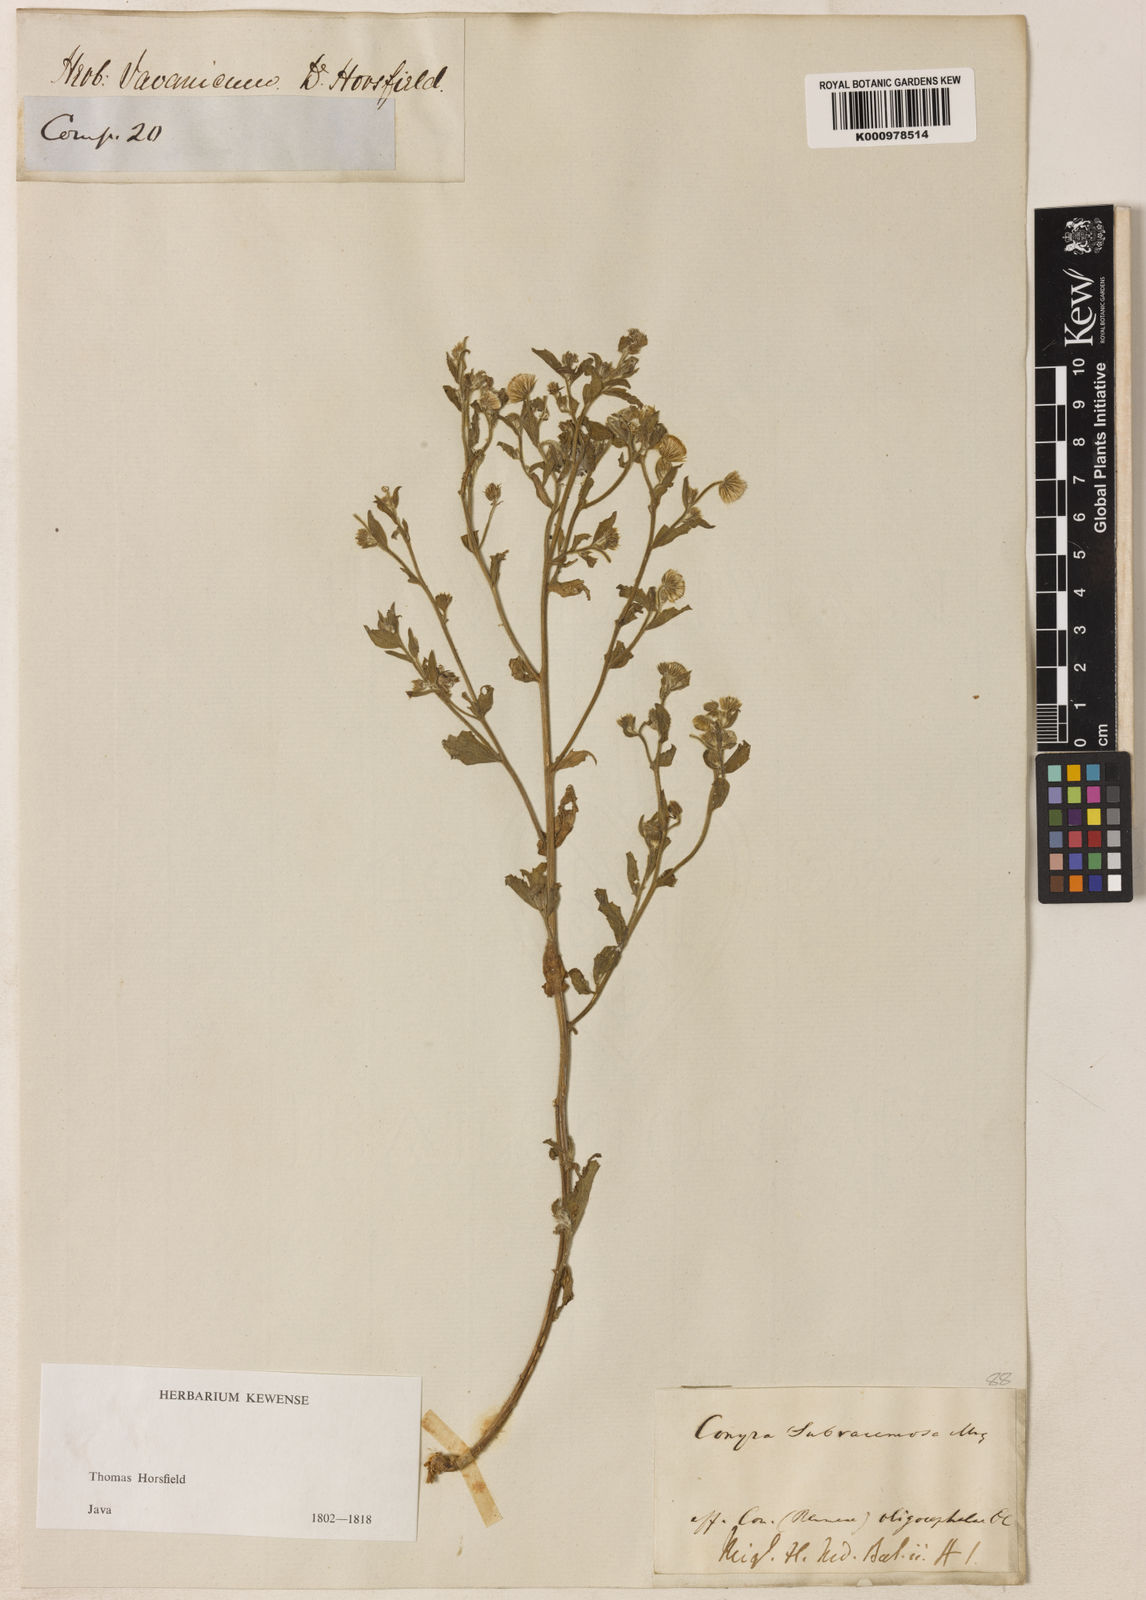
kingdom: Plantae
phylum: Tracheophyta
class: Magnoliopsida
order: Asterales
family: Asteraceae
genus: Blumea
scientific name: Blumea bifoliata
